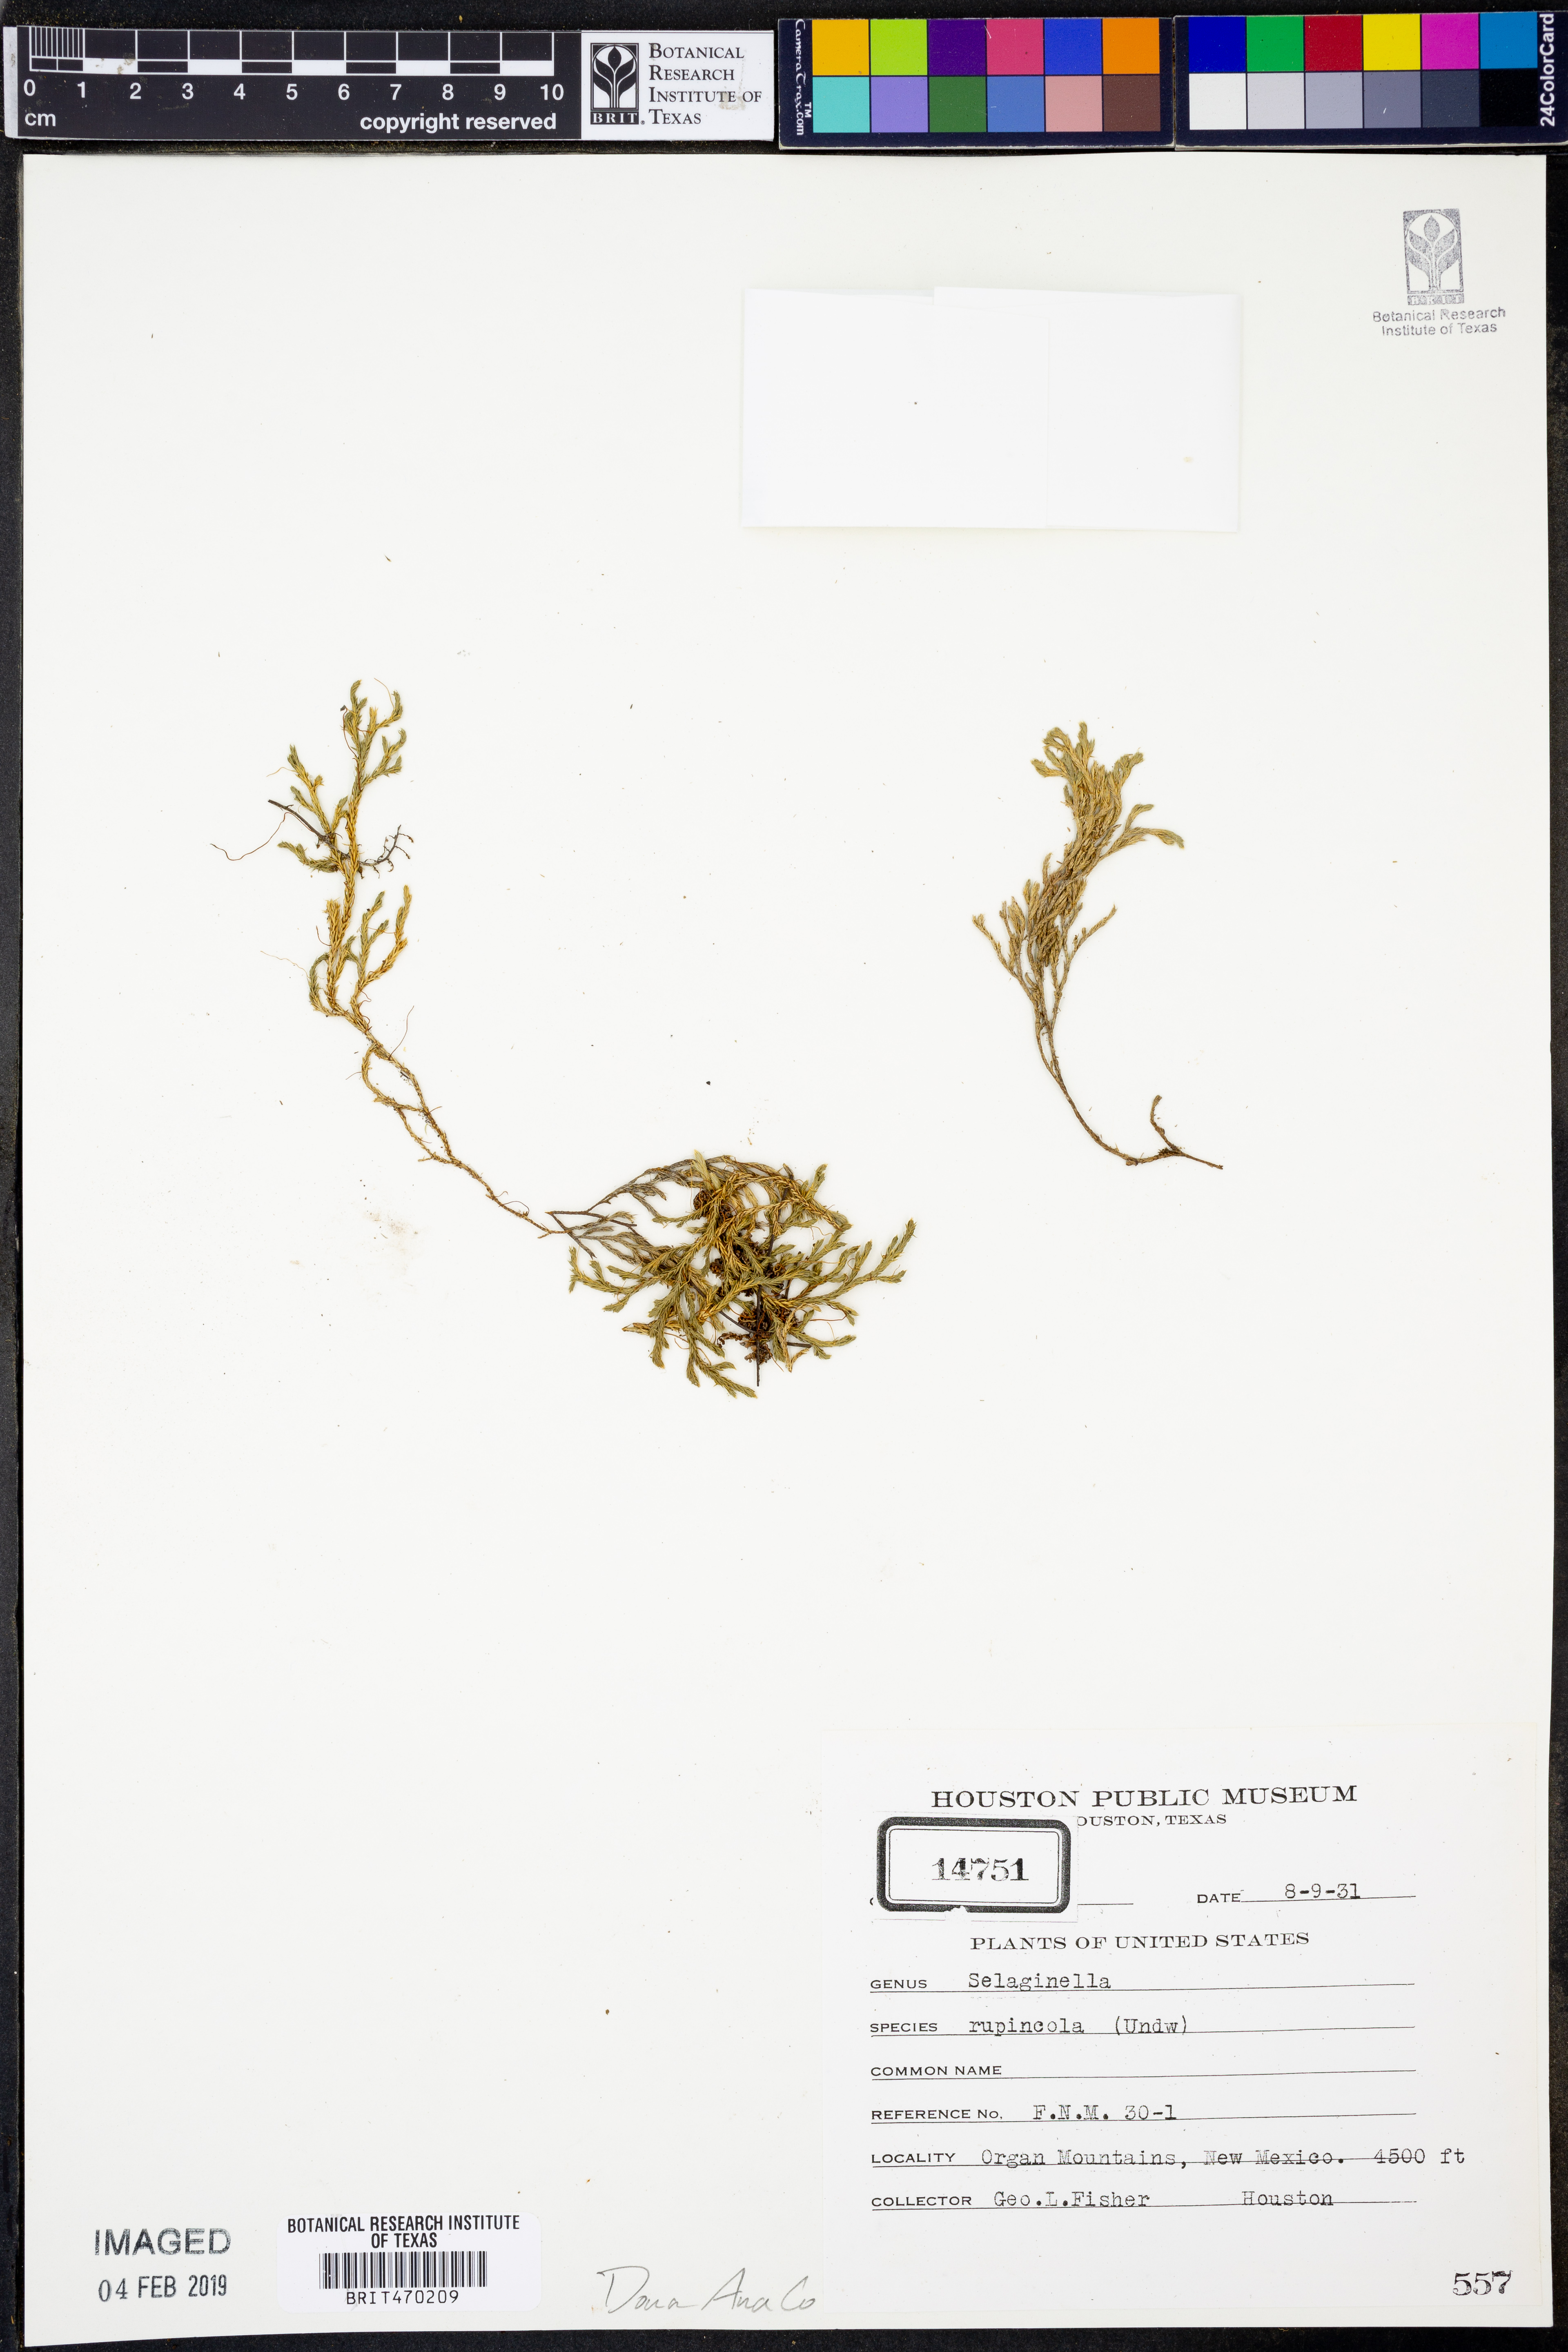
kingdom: Plantae
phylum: Tracheophyta
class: Lycopodiopsida
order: Selaginellales
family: Selaginellaceae
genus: Selaginella
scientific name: Selaginella rupincola
